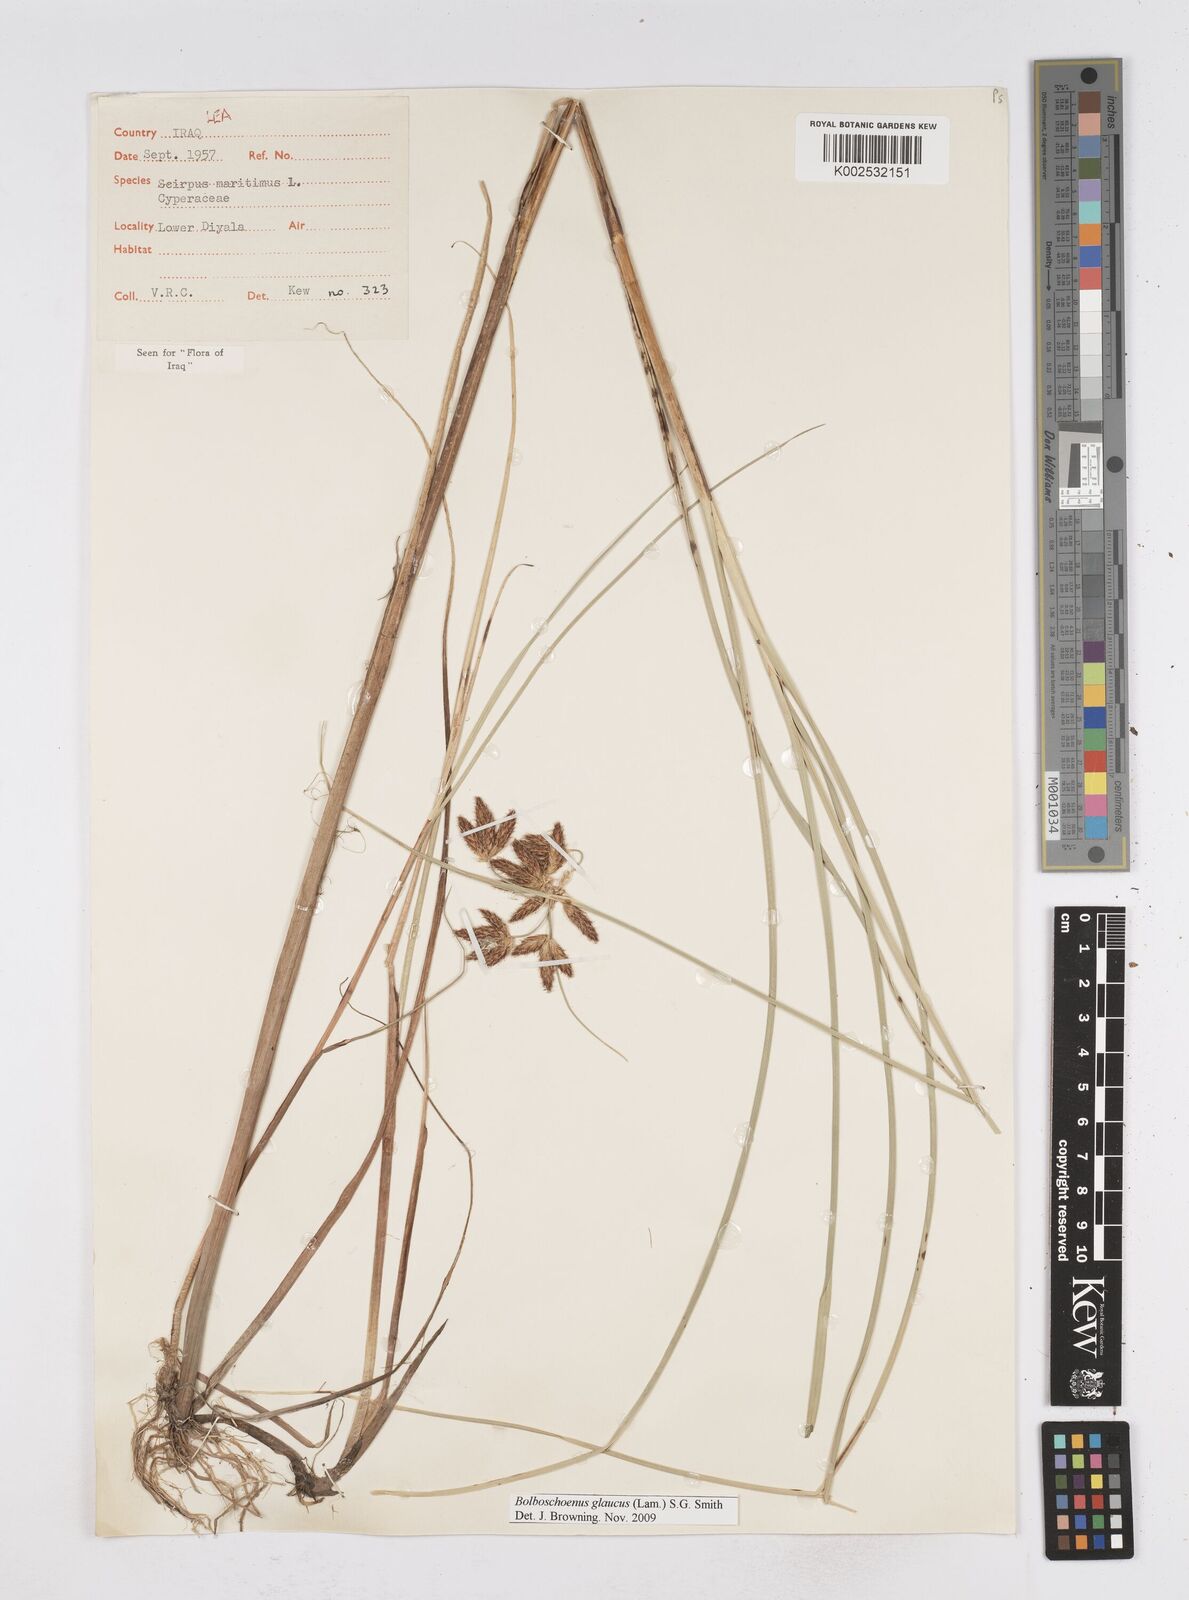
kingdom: Plantae
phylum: Tracheophyta
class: Liliopsida
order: Poales
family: Cyperaceae
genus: Bolboschoenus
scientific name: Bolboschoenus maritimus
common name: Sea club-rush
